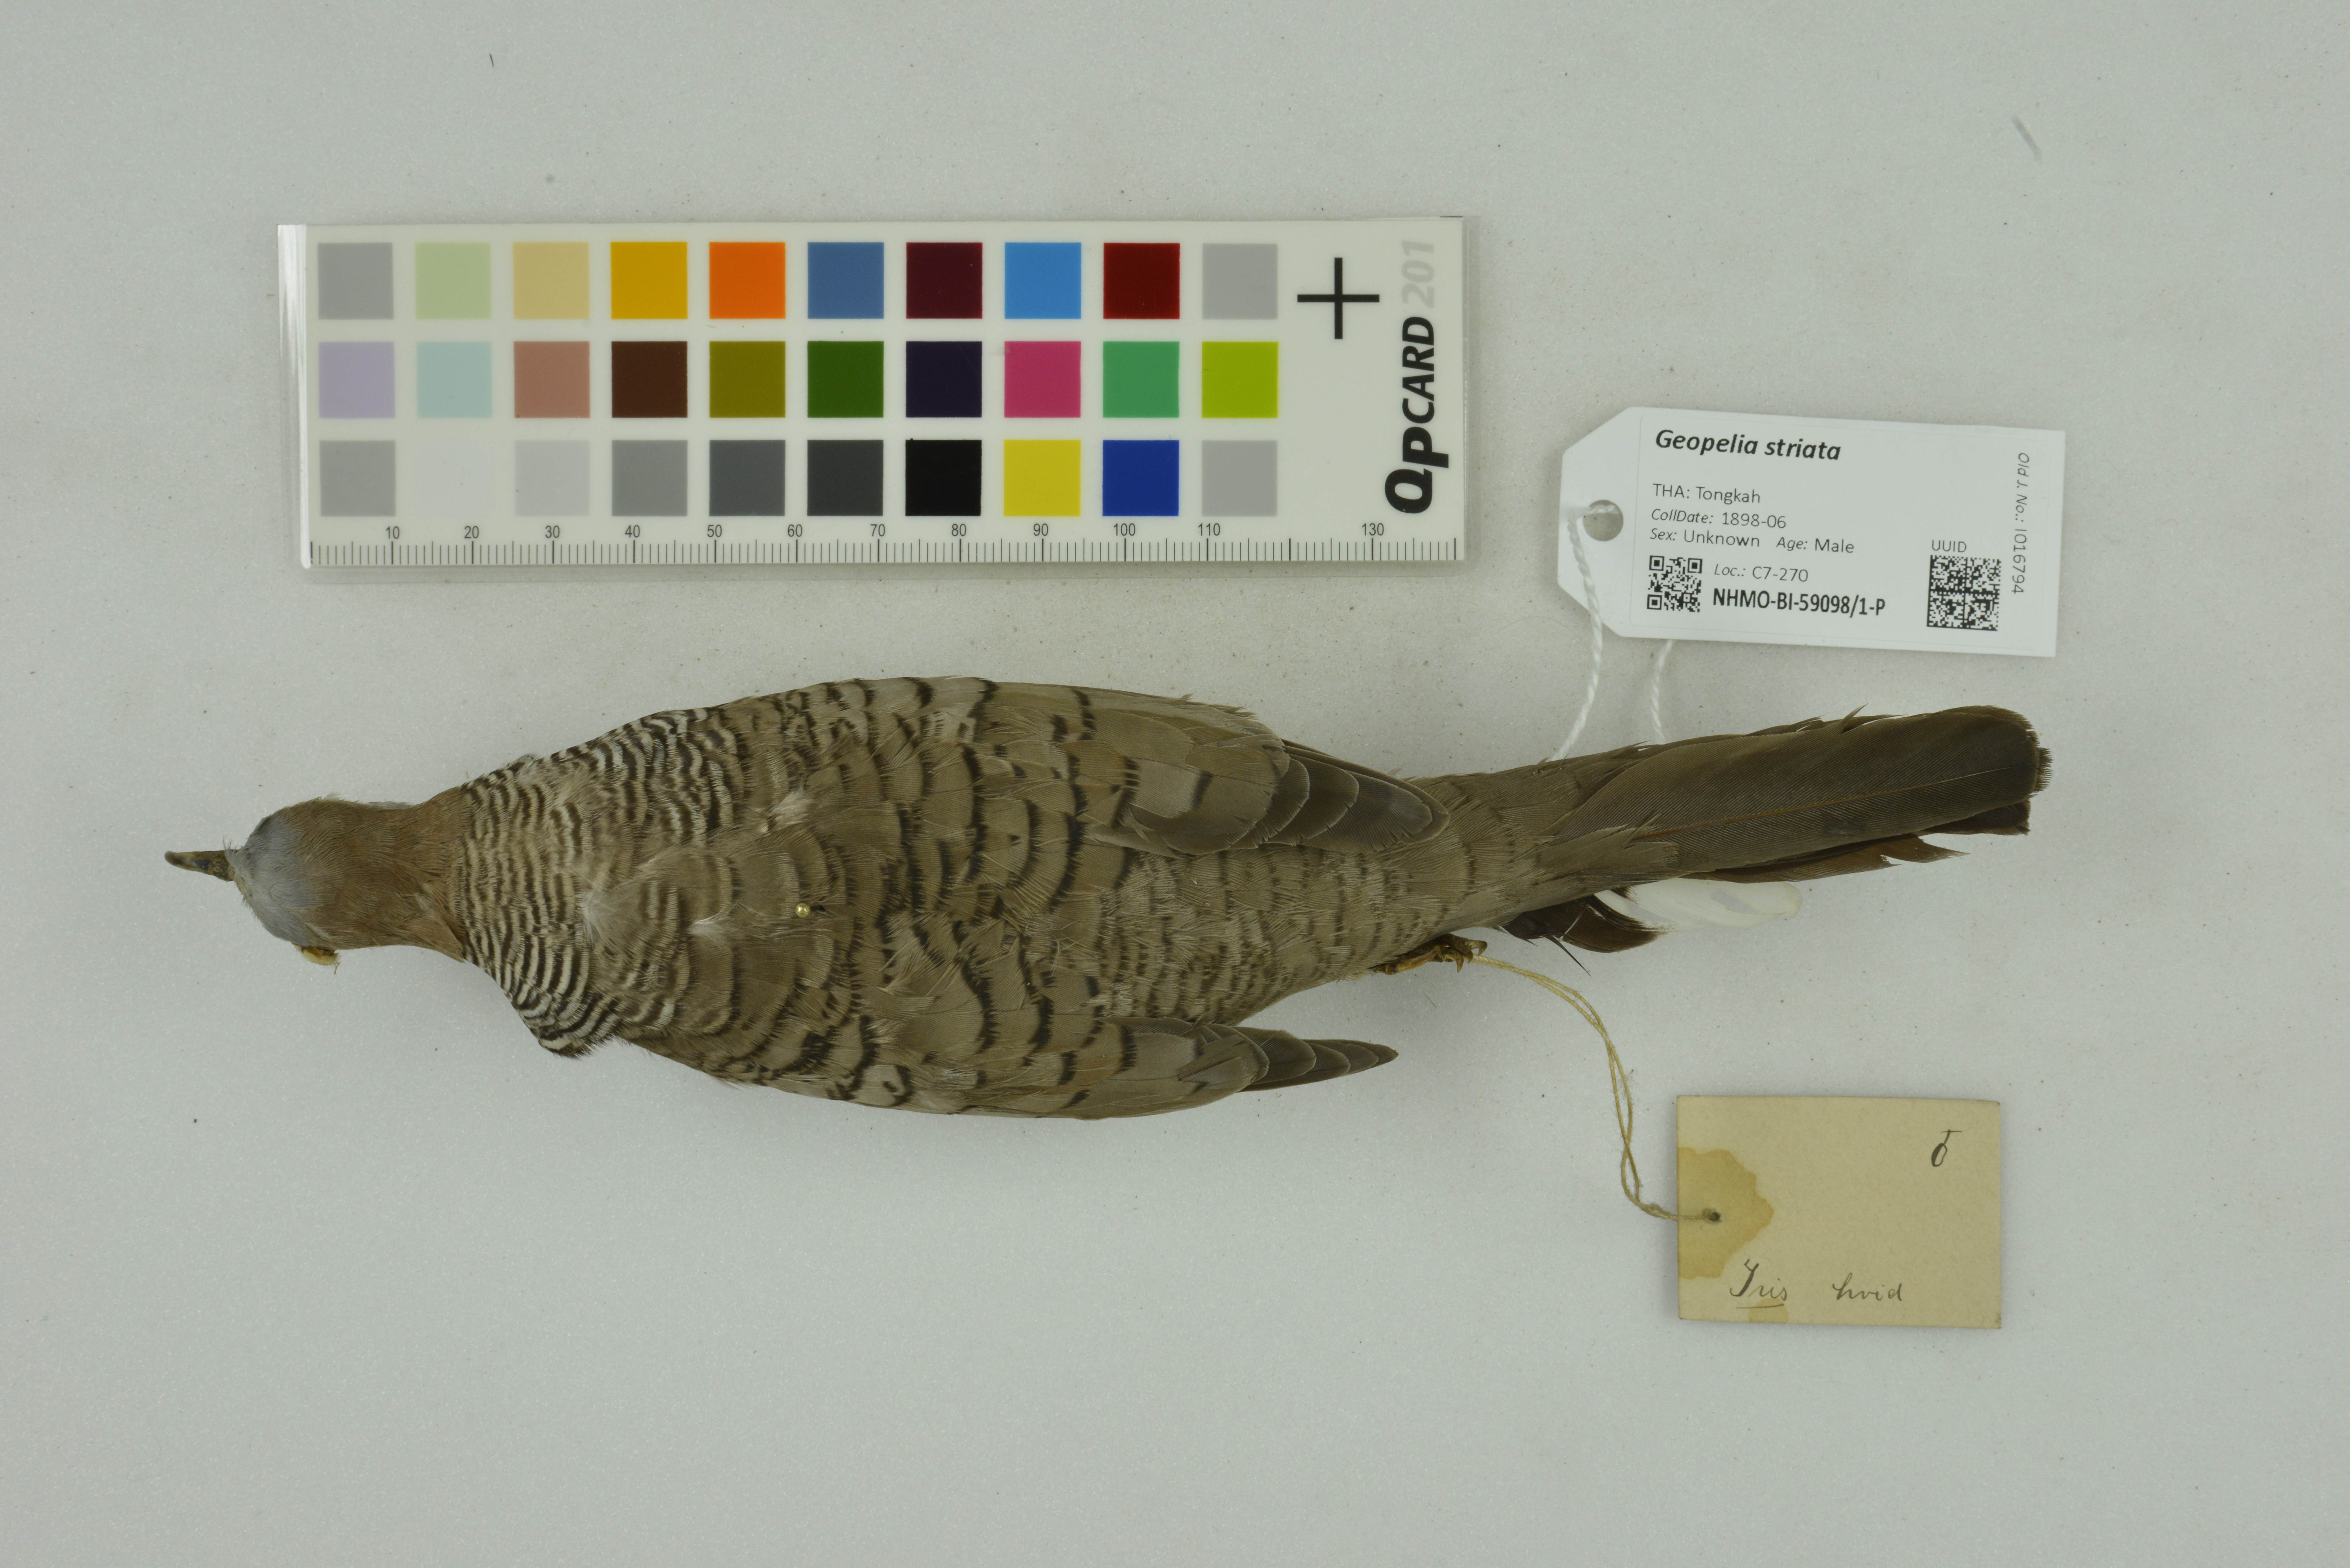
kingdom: Animalia
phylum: Chordata
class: Aves
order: Columbiformes
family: Columbidae
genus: Geopelia
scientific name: Geopelia striata
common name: Zebra dove
